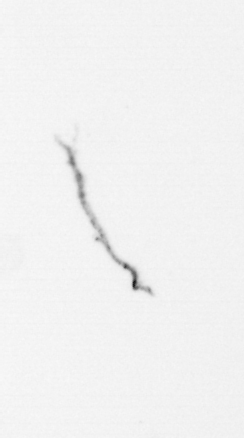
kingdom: Chromista
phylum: Ochrophyta
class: Bacillariophyceae
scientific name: Bacillariophyceae
